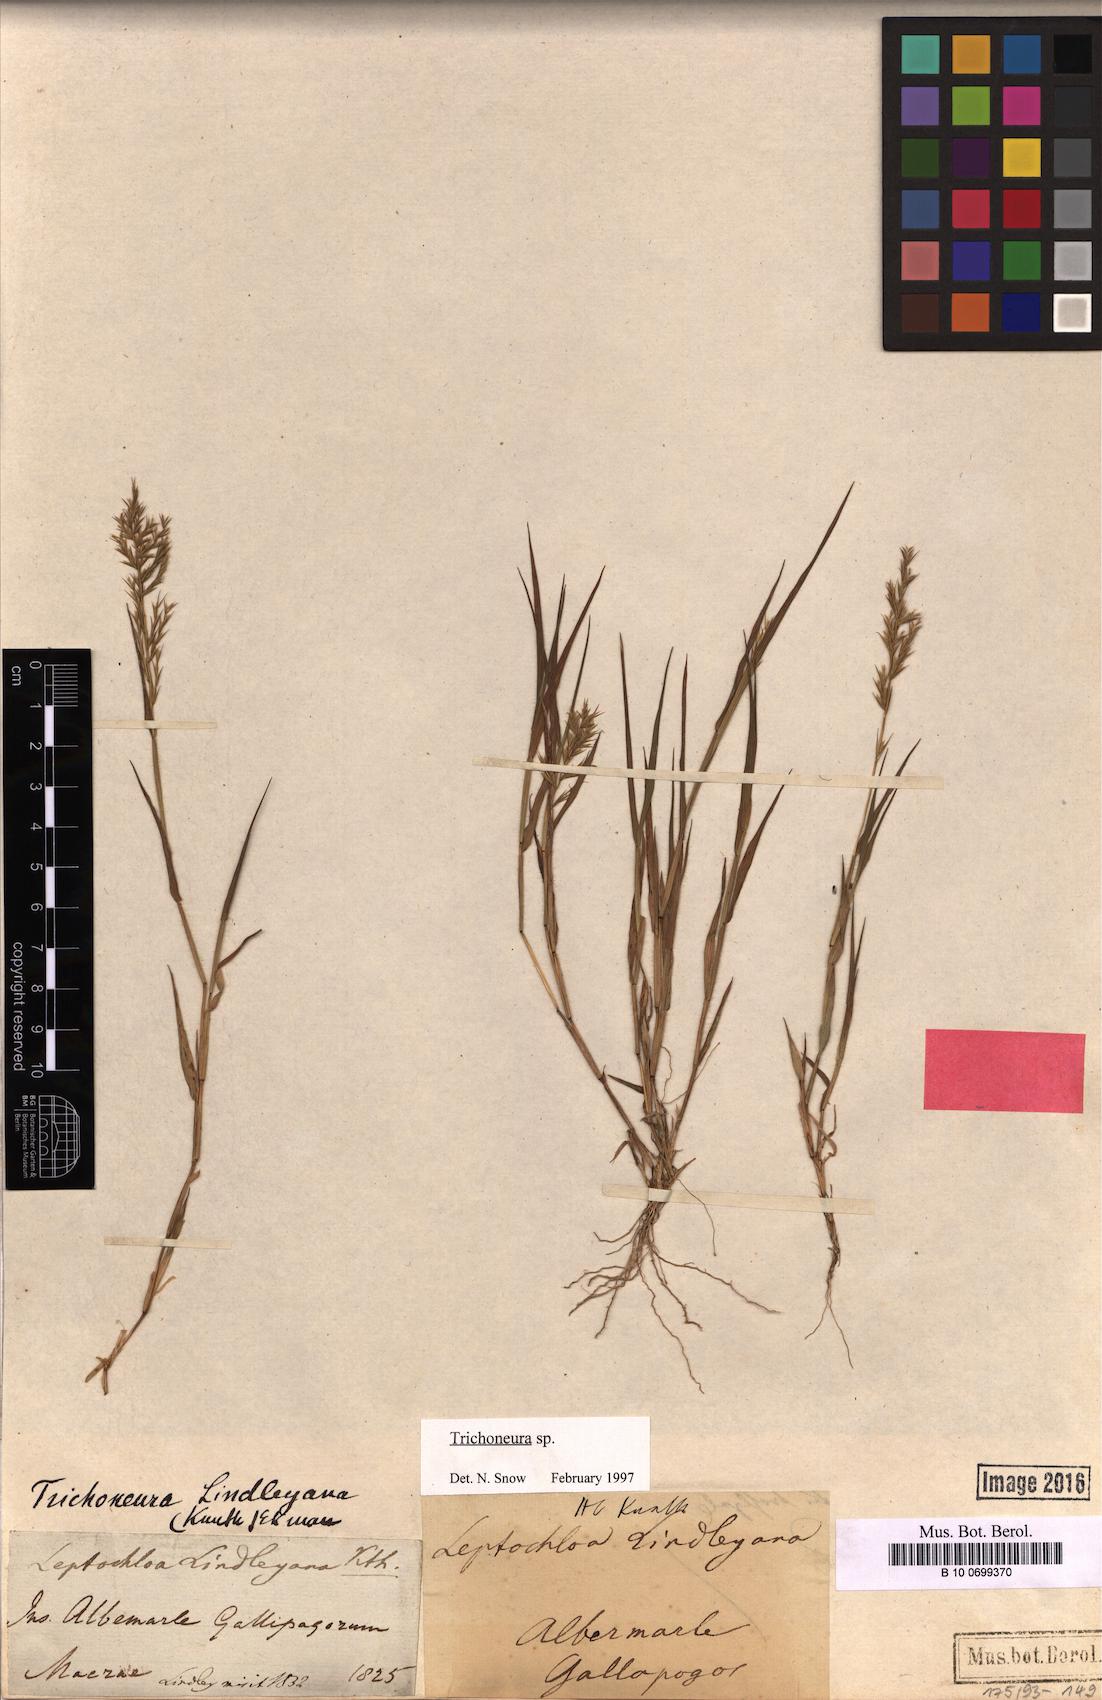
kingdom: Plantae
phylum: Tracheophyta
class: Liliopsida
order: Poales
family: Poaceae
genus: Trichoneura
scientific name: Trichoneura lindleyana
